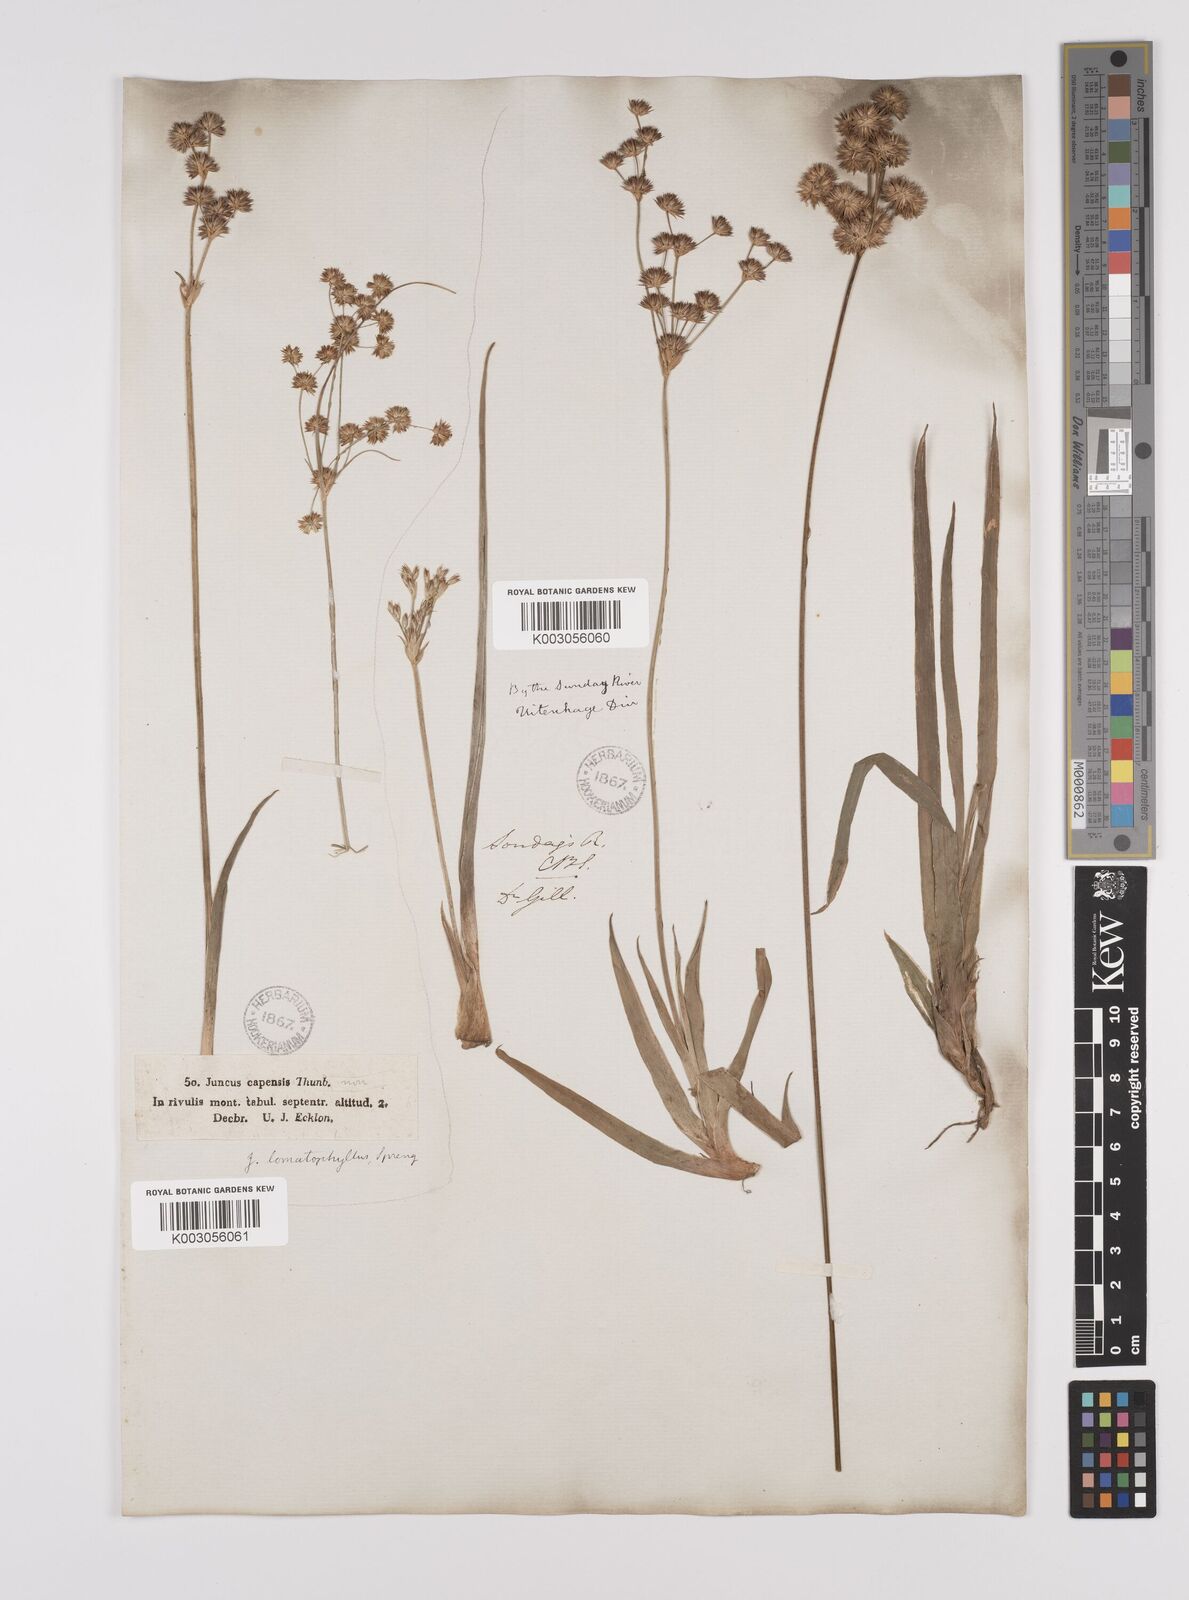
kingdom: Plantae
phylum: Tracheophyta
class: Liliopsida
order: Poales
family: Juncaceae
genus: Juncus
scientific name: Juncus lomatophyllus
